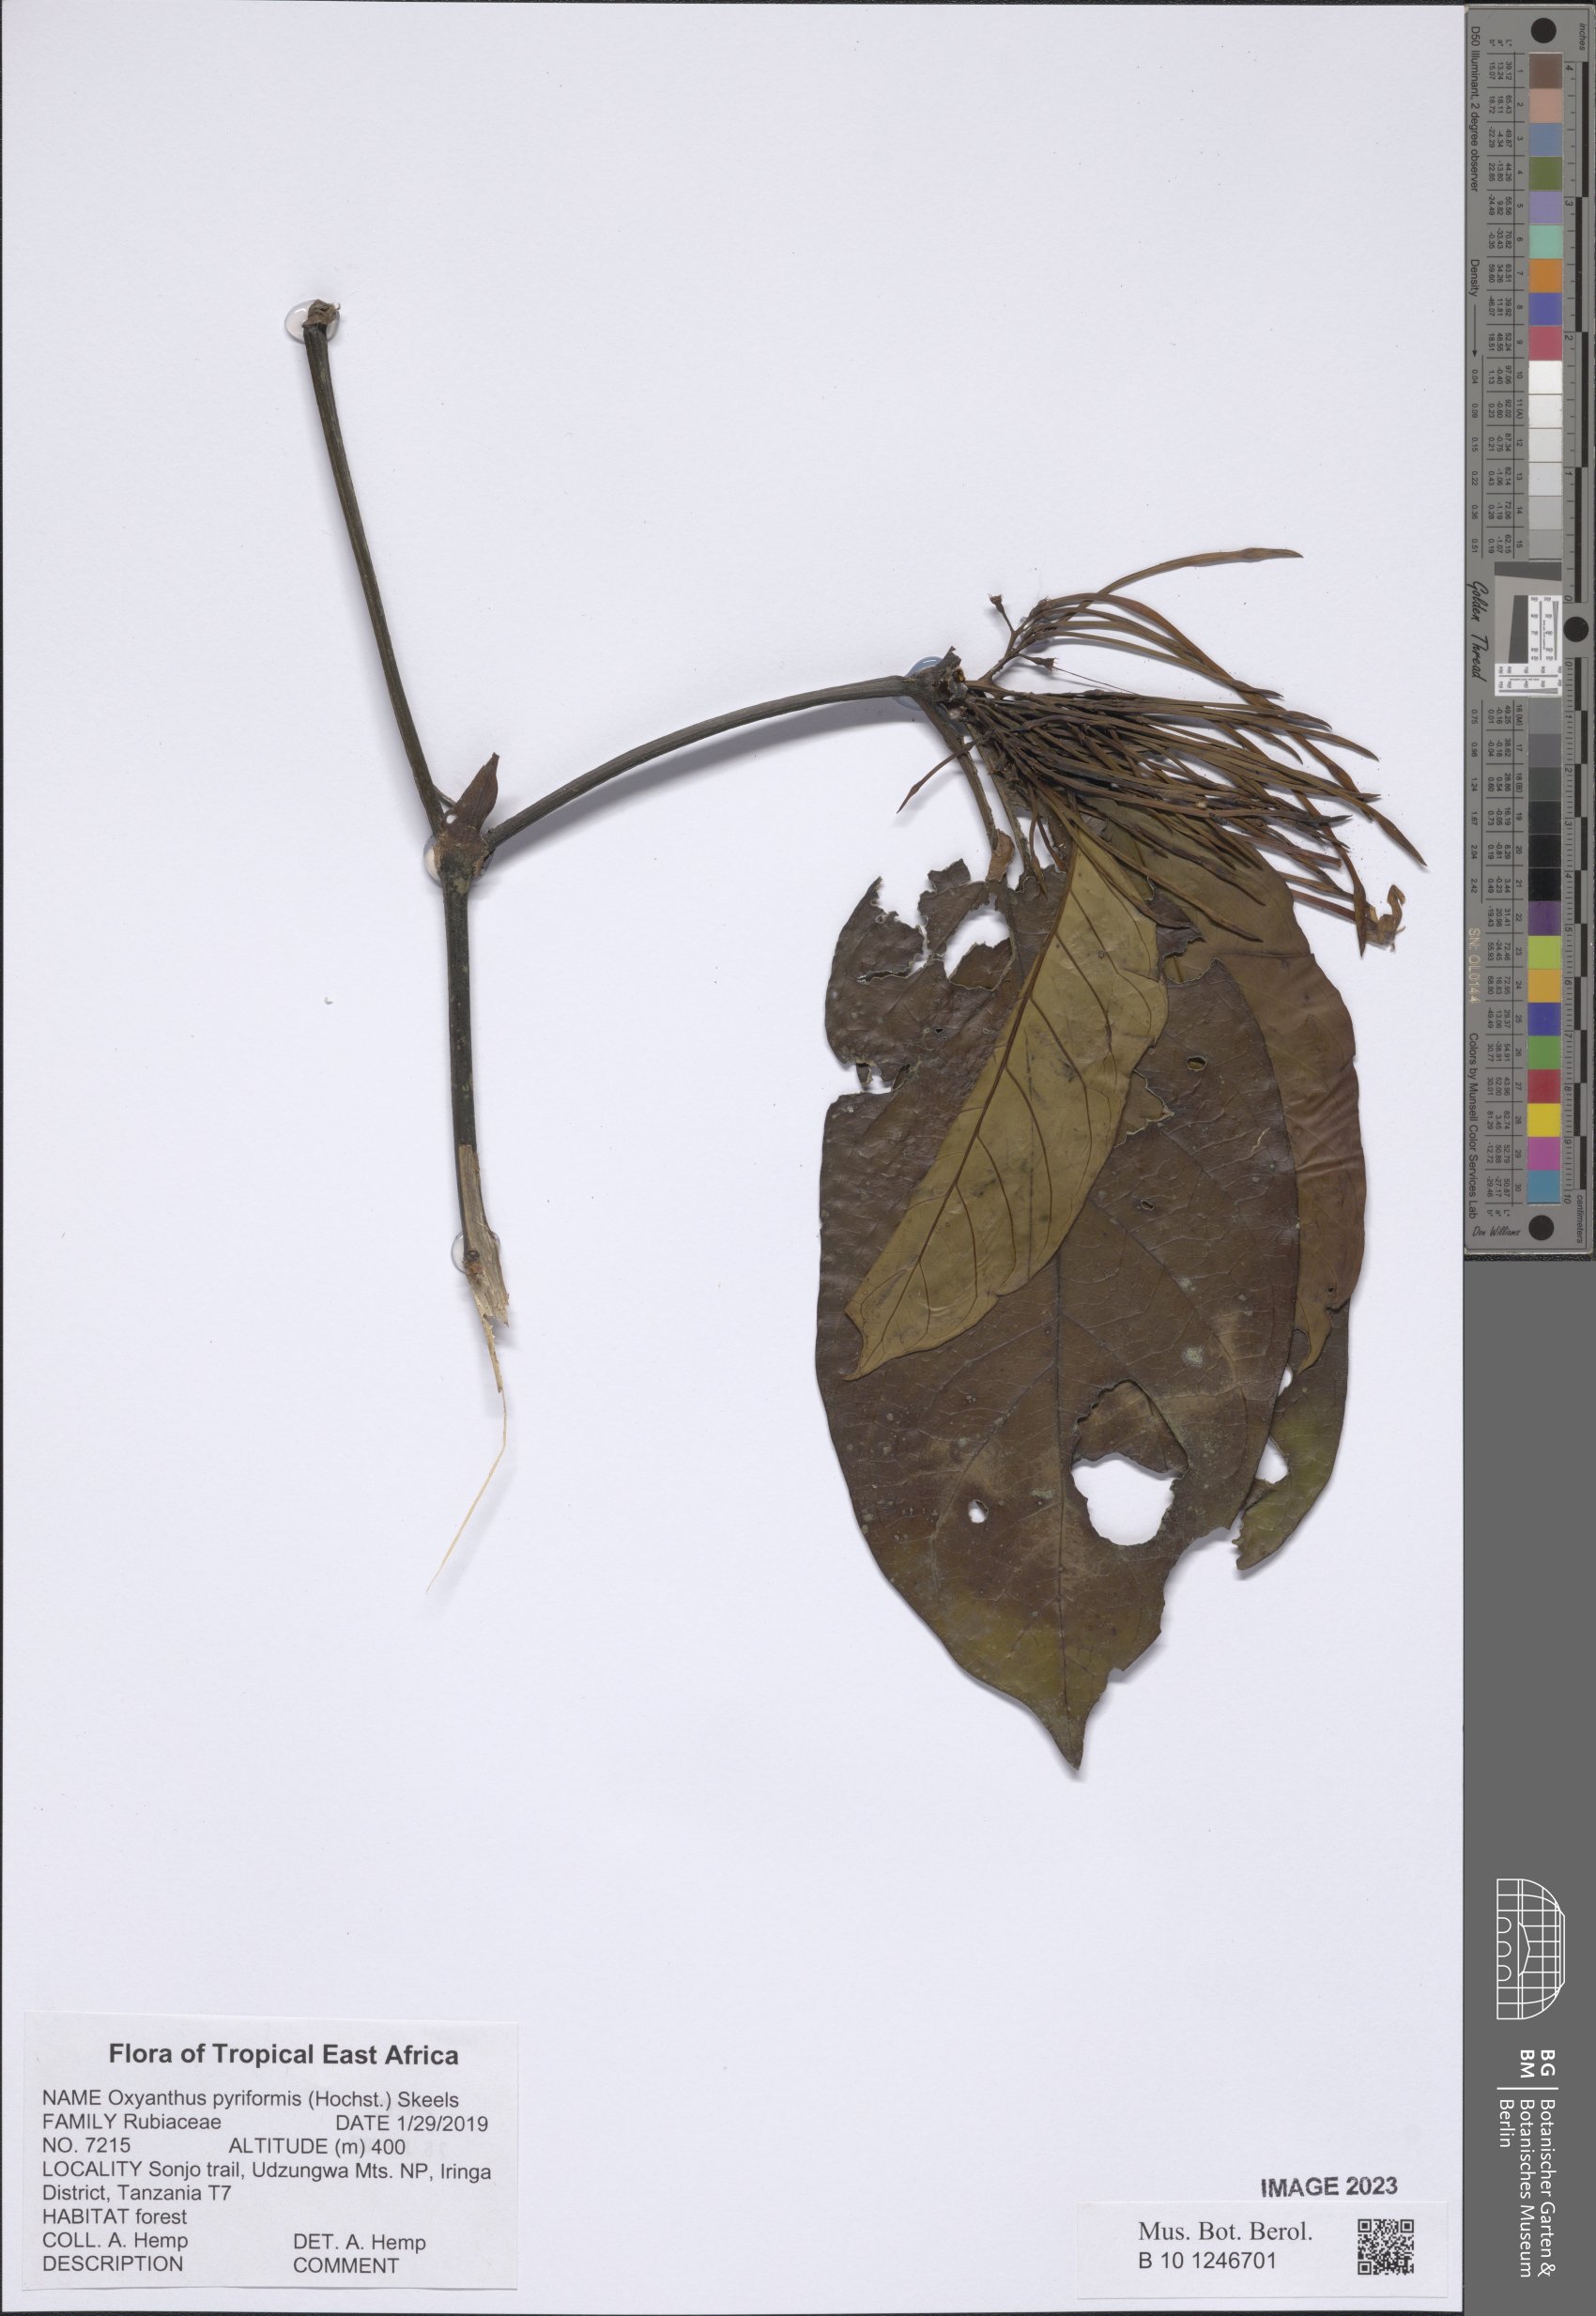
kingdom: Plantae
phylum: Tracheophyta
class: Magnoliopsida
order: Gentianales
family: Rubiaceae
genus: Oxyanthus
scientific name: Oxyanthus pyriformis
